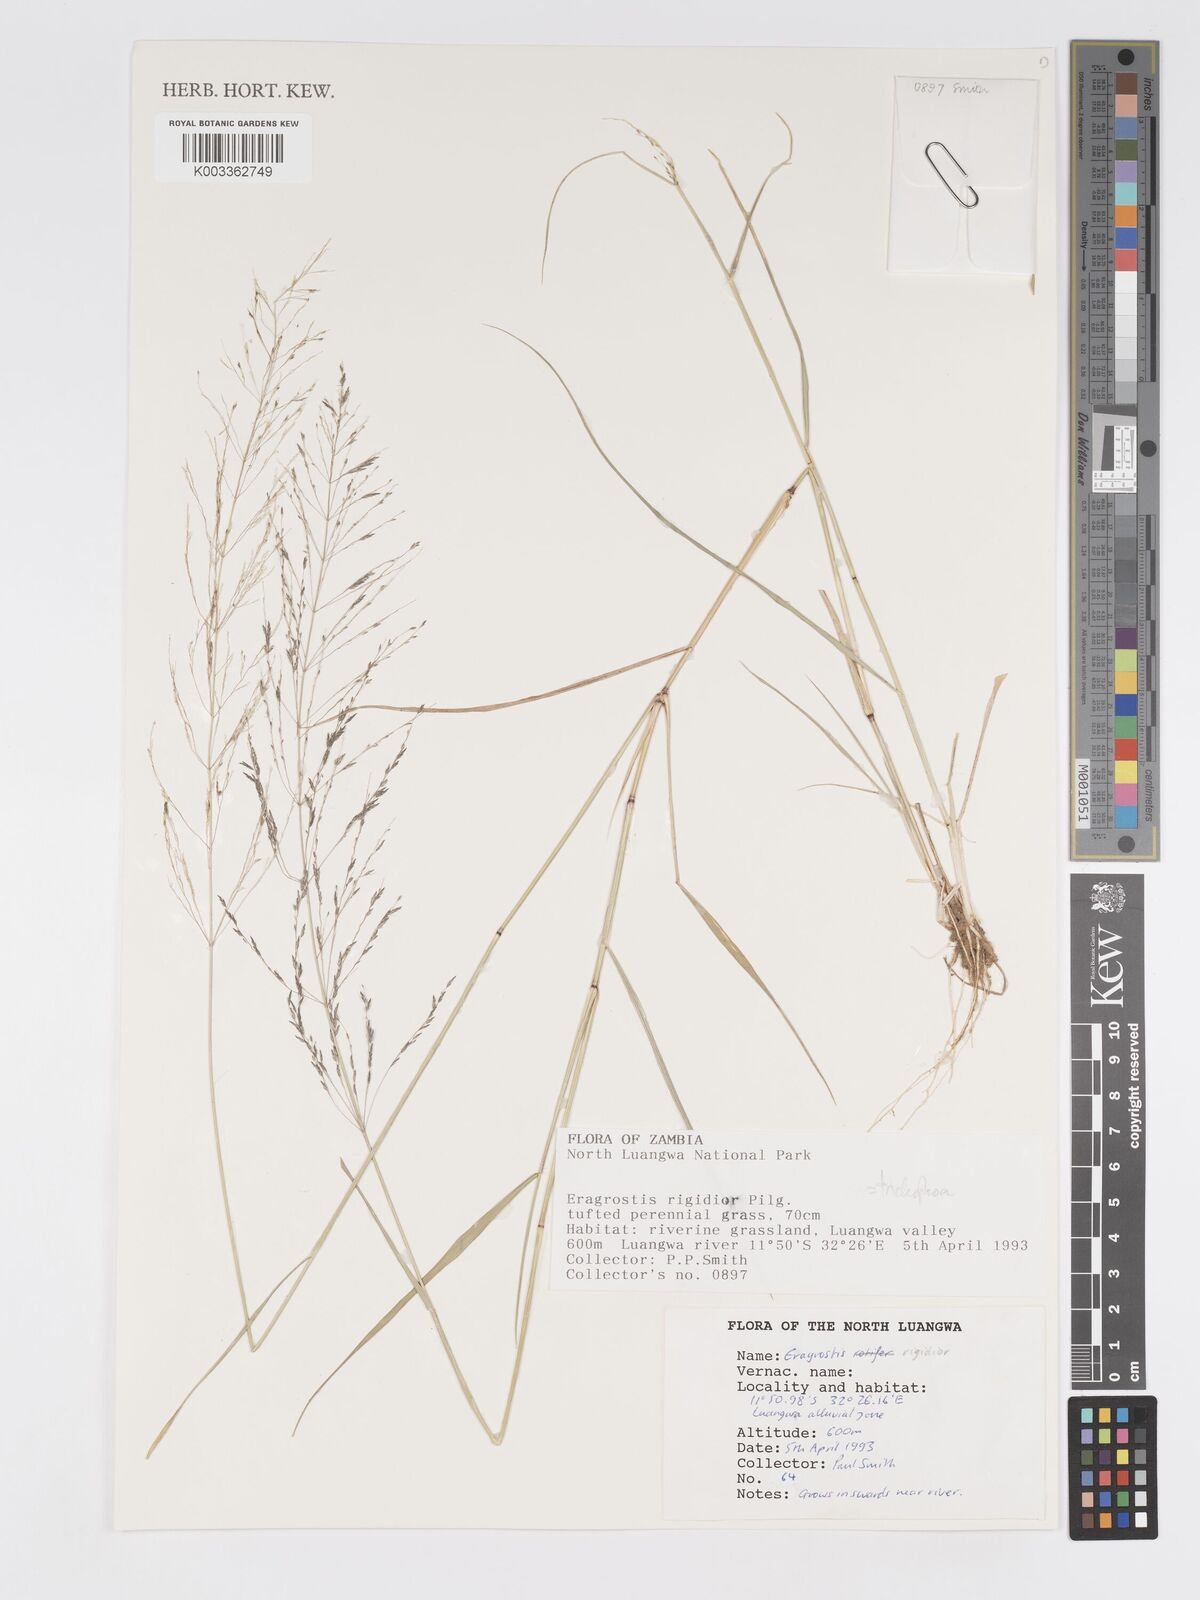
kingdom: Plantae
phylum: Tracheophyta
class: Liliopsida
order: Poales
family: Poaceae
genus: Eragrostis
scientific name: Eragrostis cylindriflora
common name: Cylinderflower lovegrass
